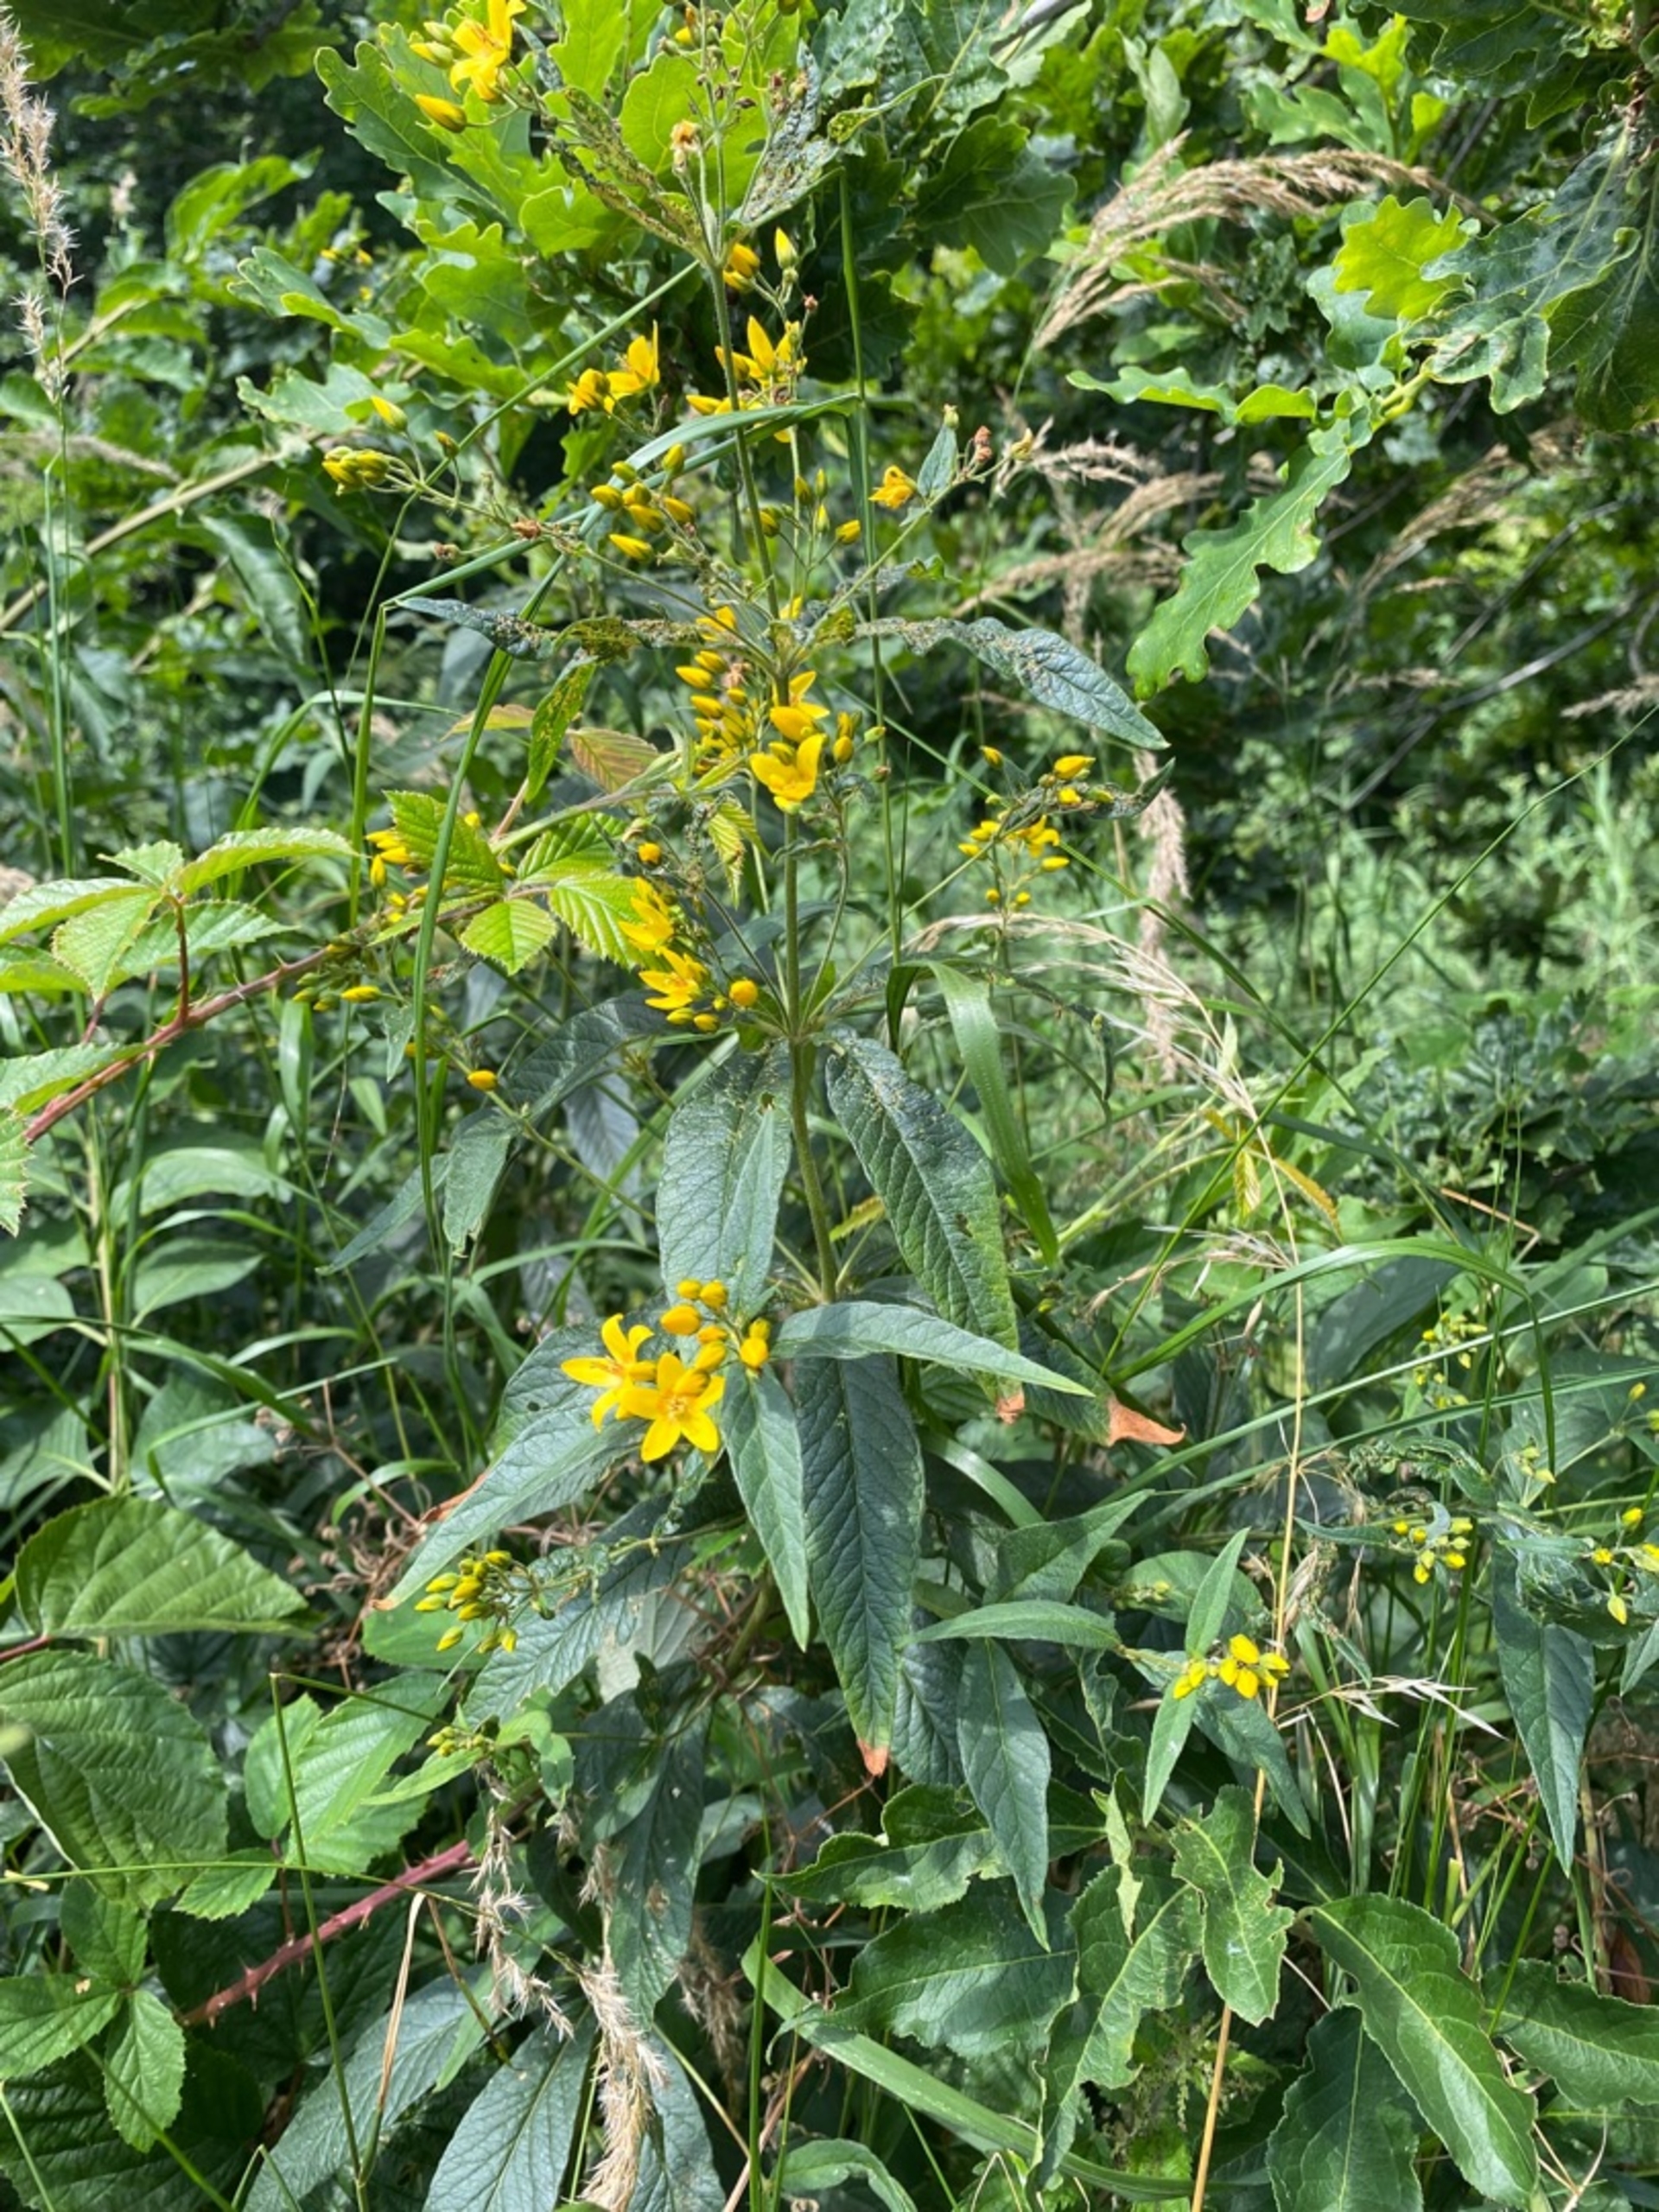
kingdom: Plantae
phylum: Tracheophyta
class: Magnoliopsida
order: Ericales
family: Primulaceae
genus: Lysimachia
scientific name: Lysimachia vulgaris
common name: Almindelig fredløs
